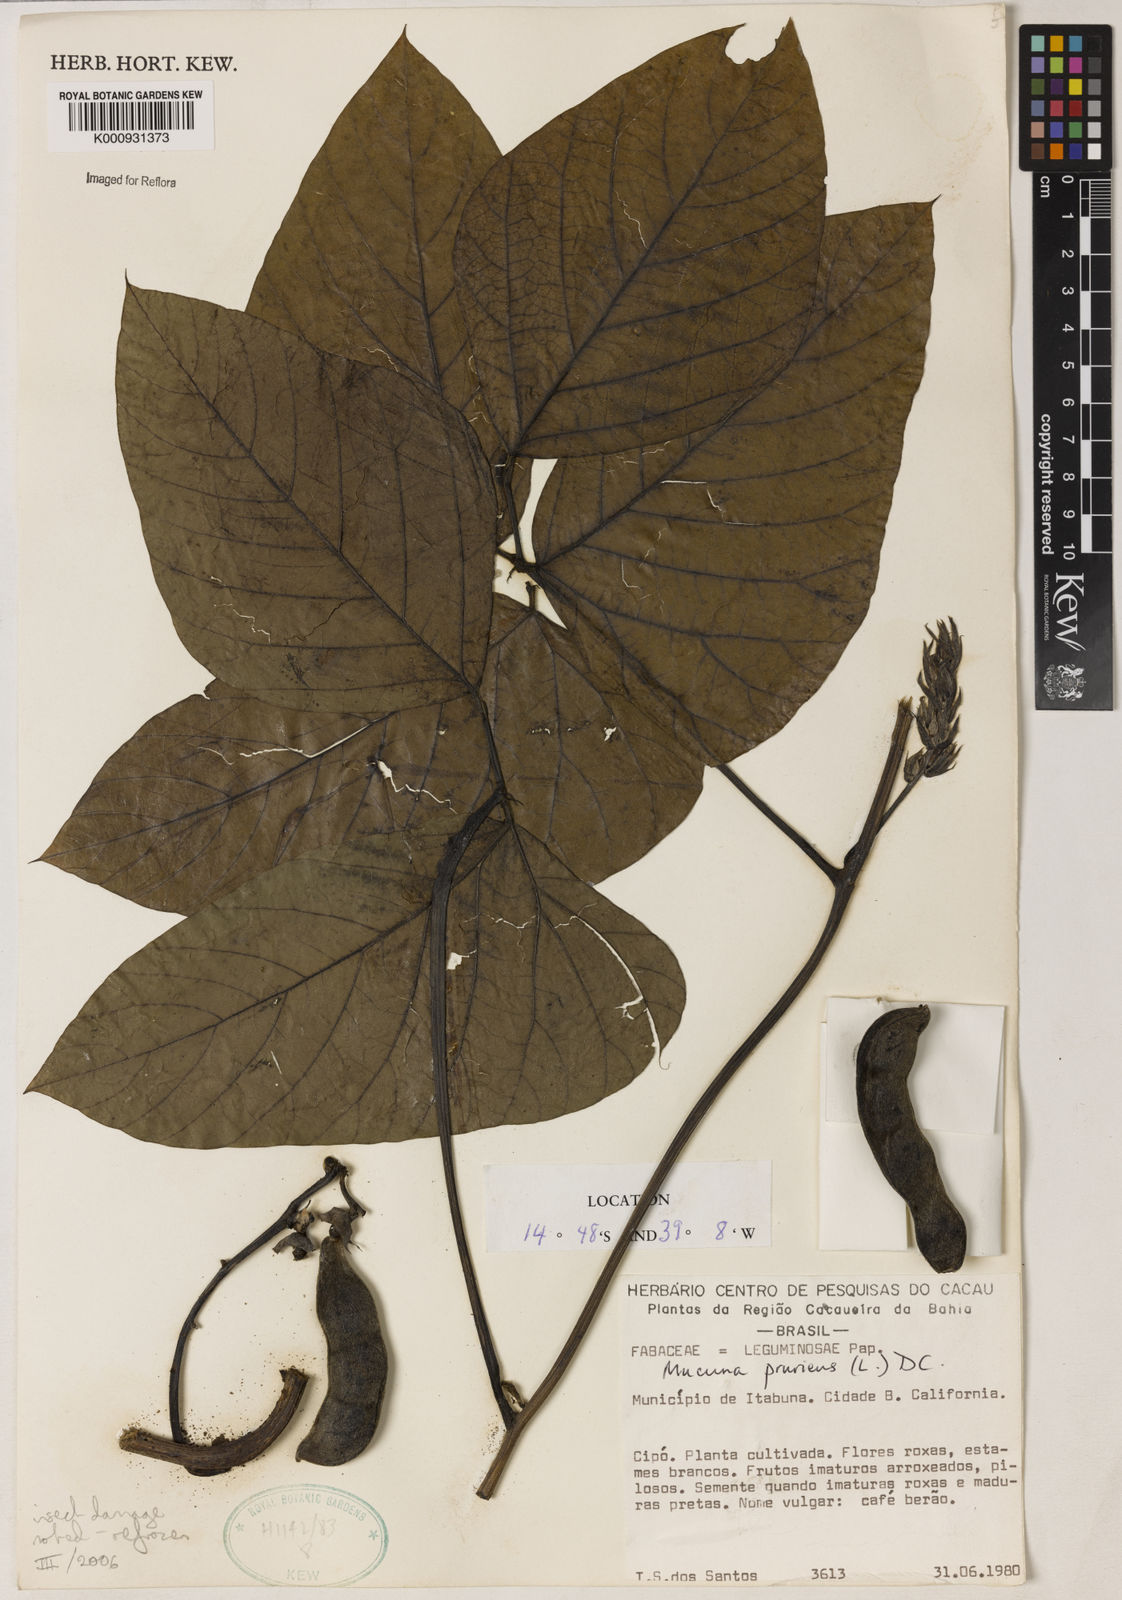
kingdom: Plantae
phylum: Tracheophyta
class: Magnoliopsida
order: Fabales
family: Fabaceae
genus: Mucuna
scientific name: Mucuna pruriens
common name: Cow-itch
